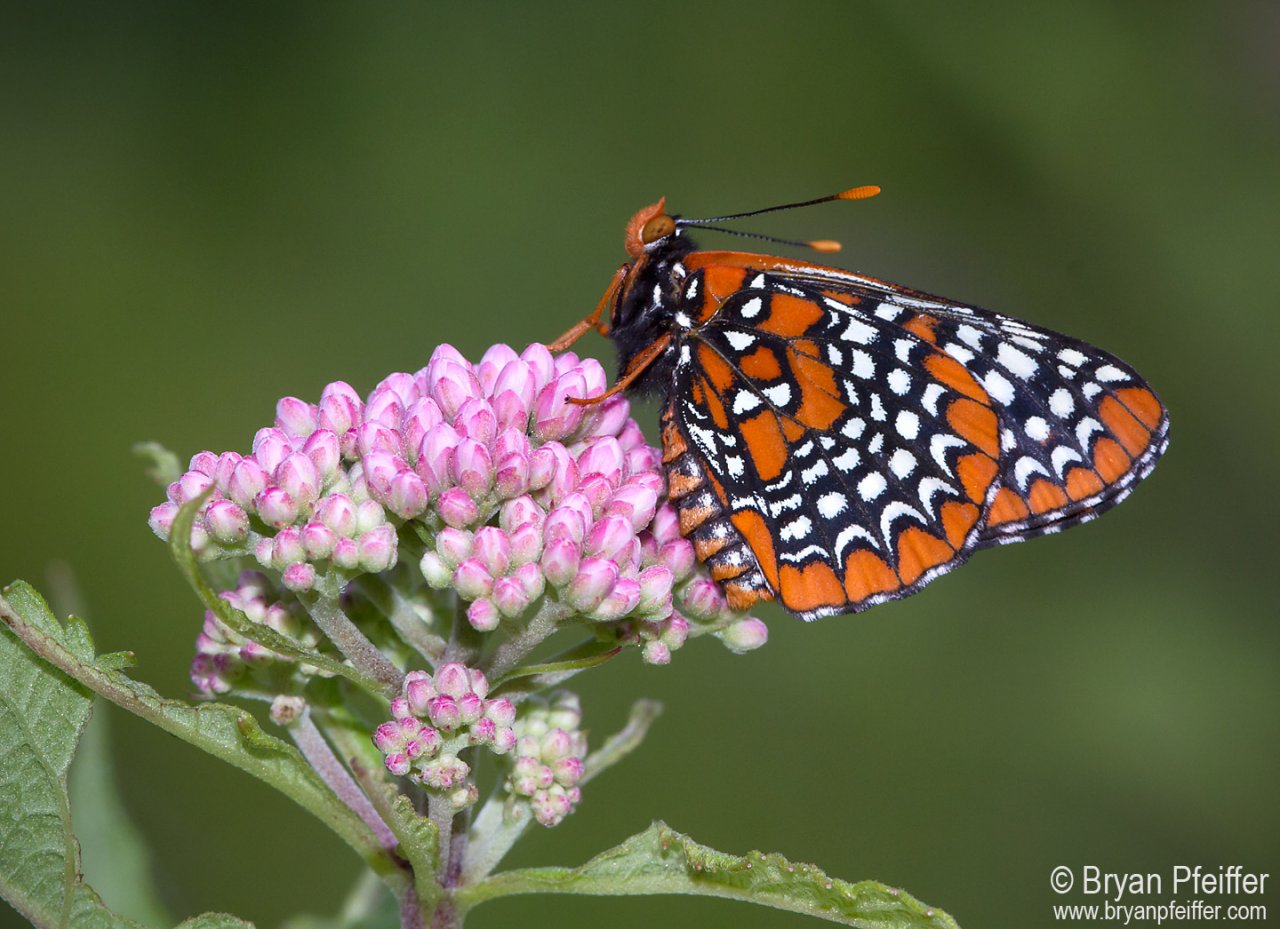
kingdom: Animalia
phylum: Arthropoda
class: Insecta
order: Lepidoptera
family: Nymphalidae
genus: Euphydryas
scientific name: Euphydryas phaeton
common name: Baltimore Checkerspot
